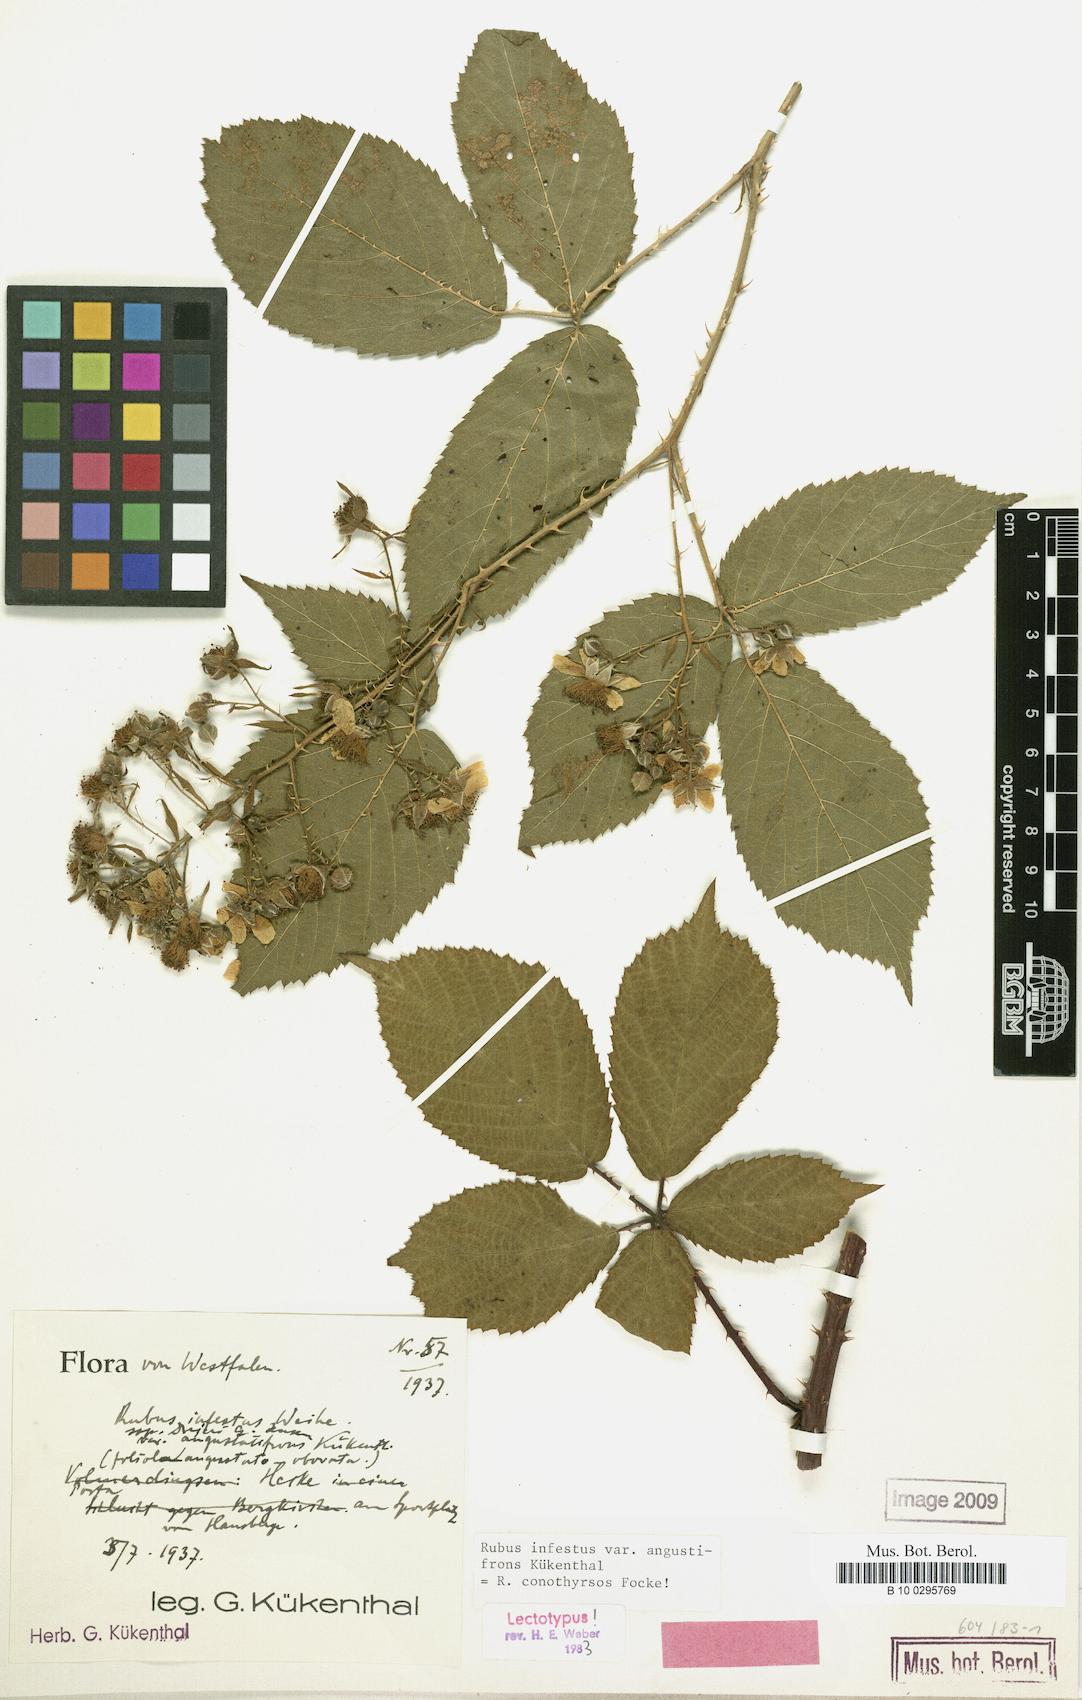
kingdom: Plantae
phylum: Tracheophyta
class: Magnoliopsida
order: Rosales
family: Rosaceae
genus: Rubus
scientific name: Rubus siekensis
